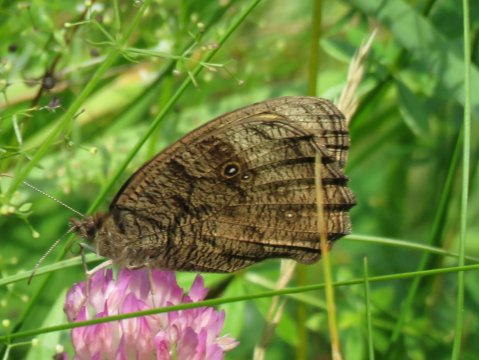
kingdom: Animalia
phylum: Arthropoda
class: Insecta
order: Lepidoptera
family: Nymphalidae
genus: Cercyonis
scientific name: Cercyonis pegala
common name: Common Wood-Nymph
